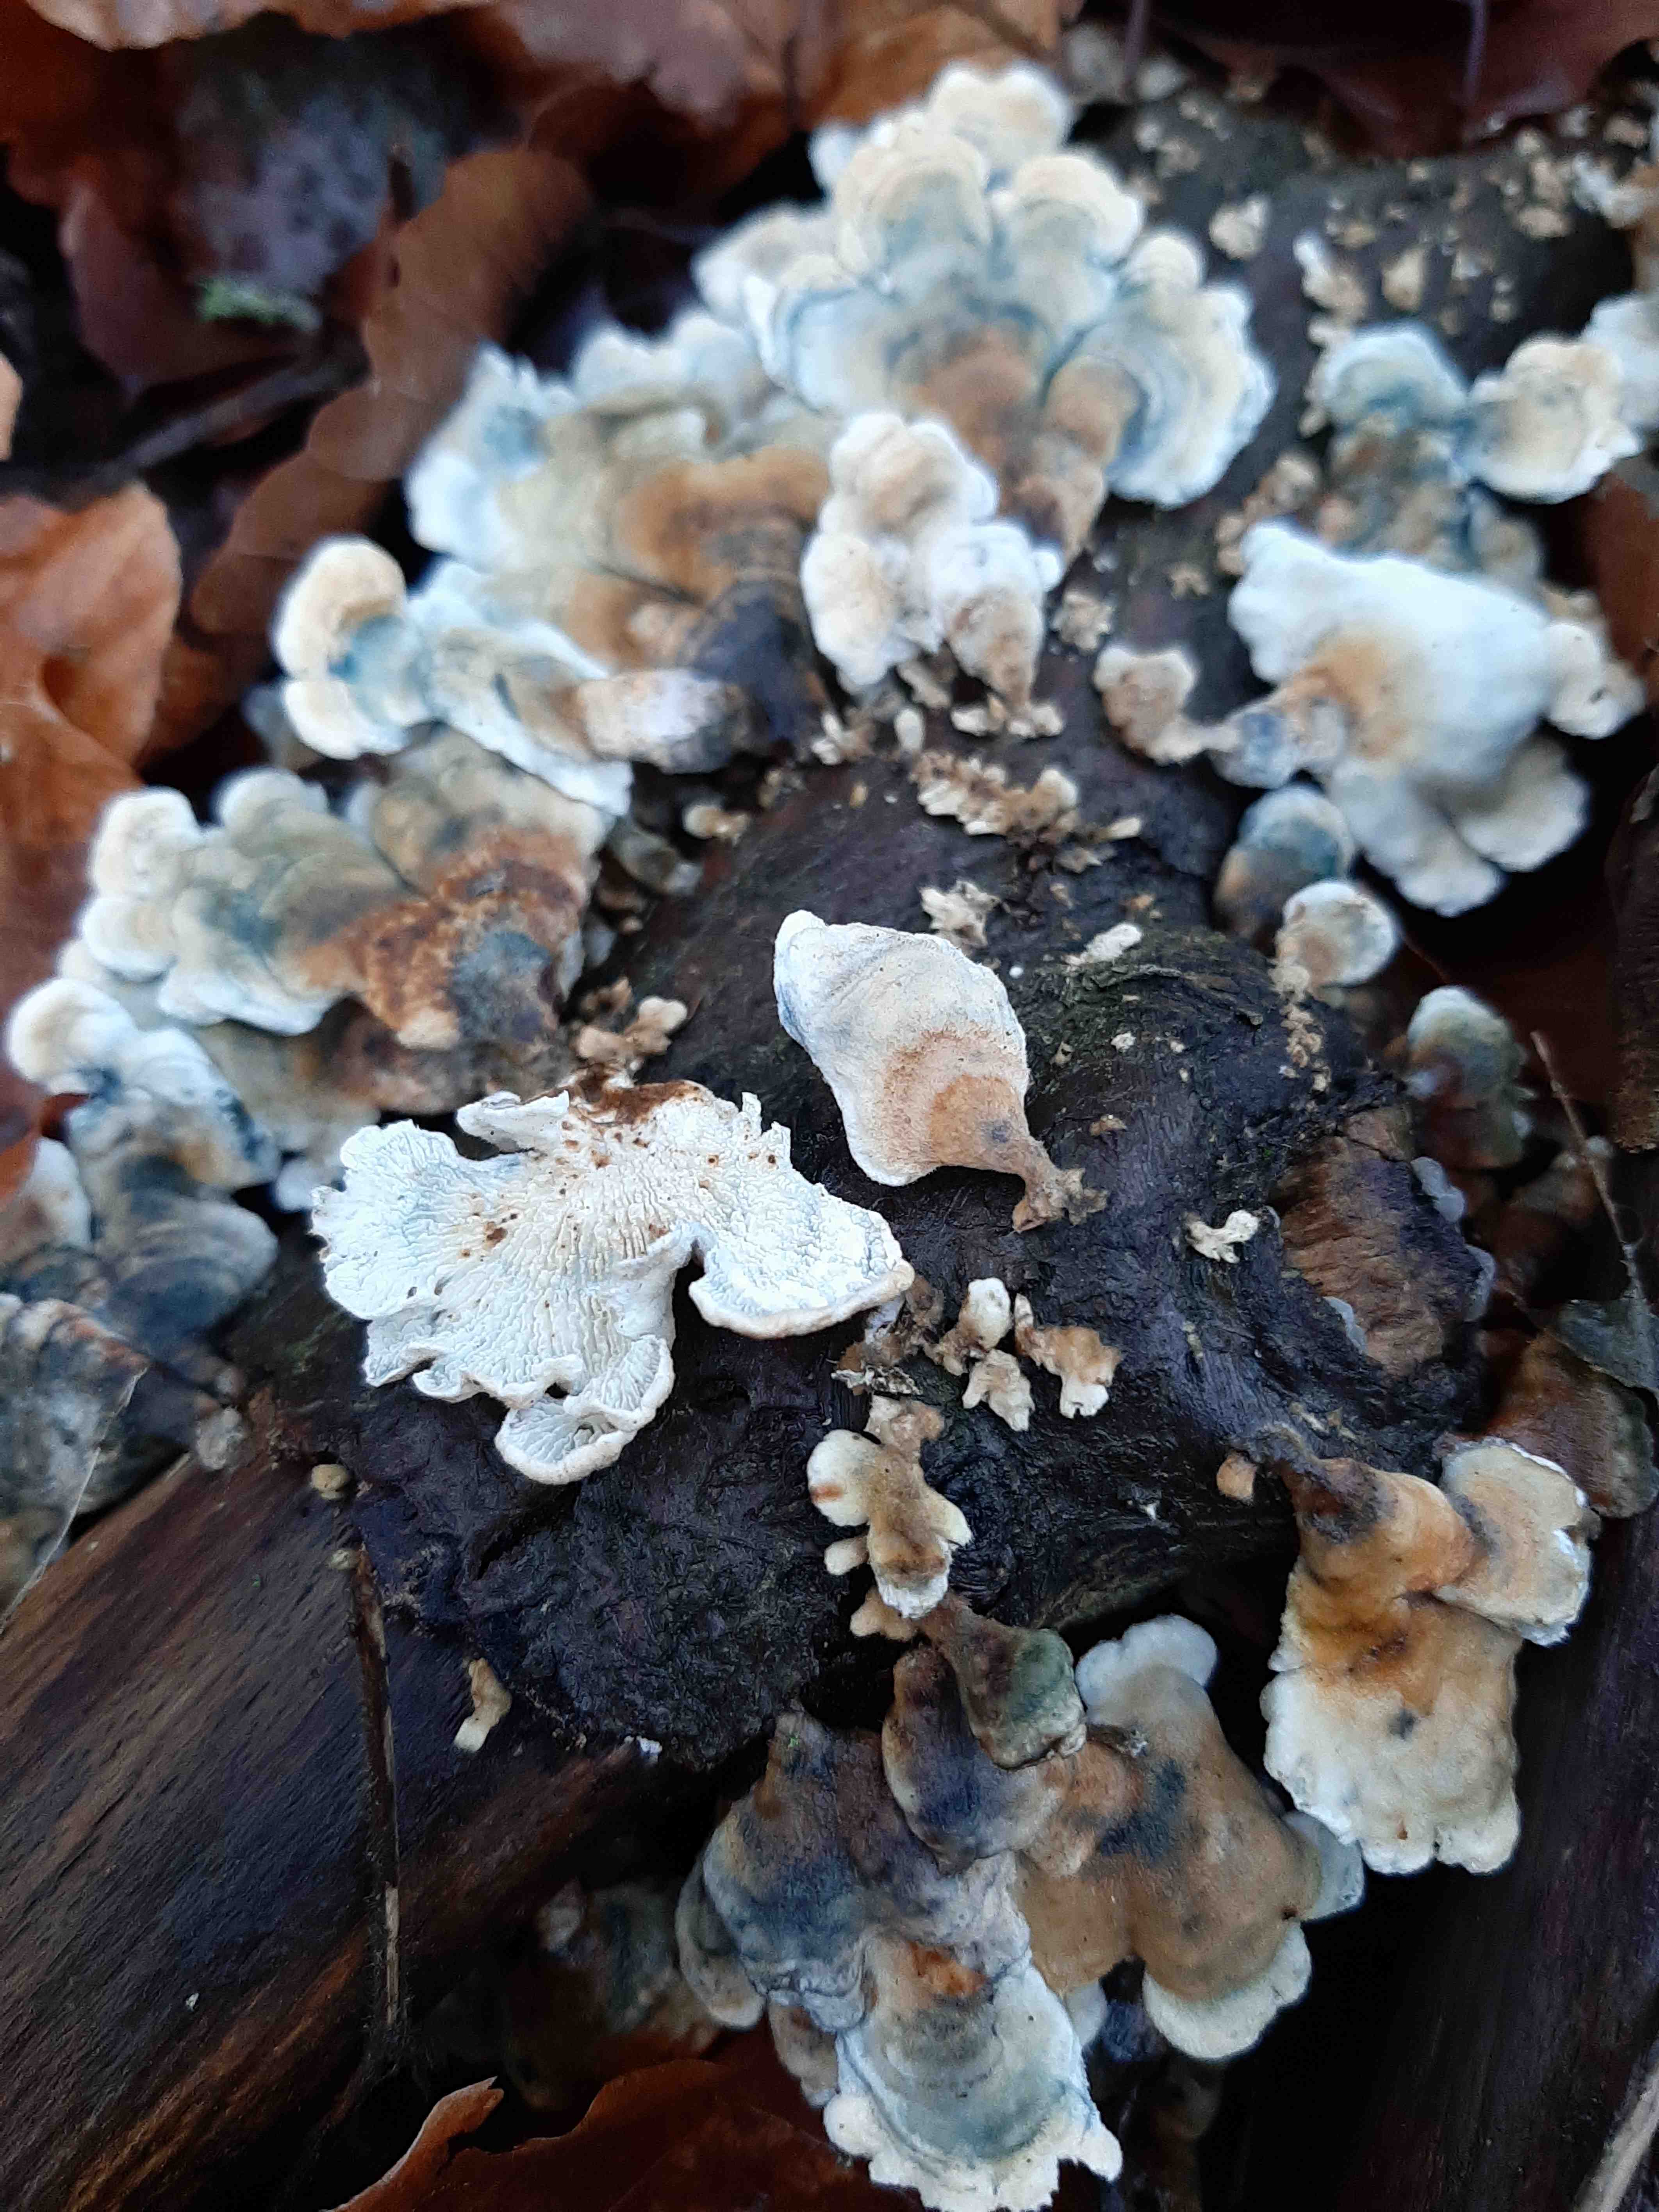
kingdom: Fungi
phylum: Basidiomycota
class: Agaricomycetes
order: Amylocorticiales
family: Amylocorticiaceae
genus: Plicaturopsis
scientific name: Plicaturopsis crispa
